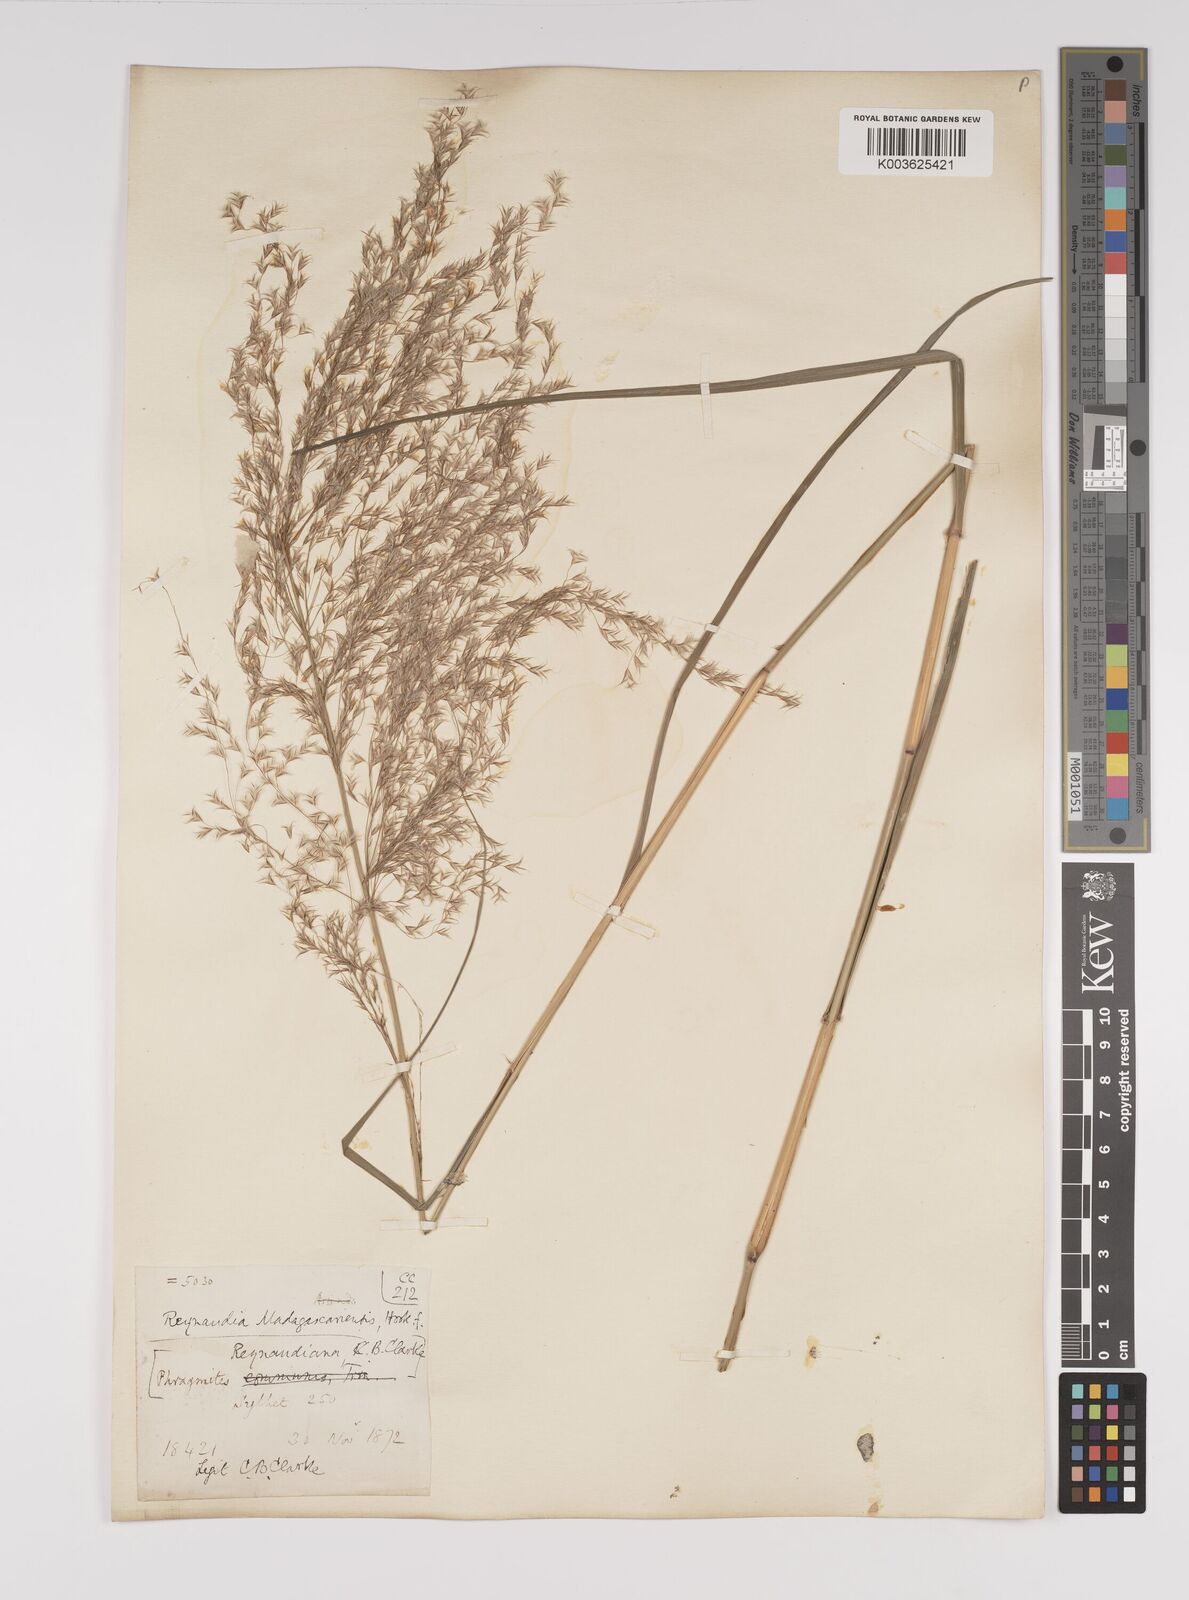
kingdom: Plantae
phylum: Tracheophyta
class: Liliopsida
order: Poales
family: Poaceae
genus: Neyraudia
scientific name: Neyraudia reynaudiana
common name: Silkreed
